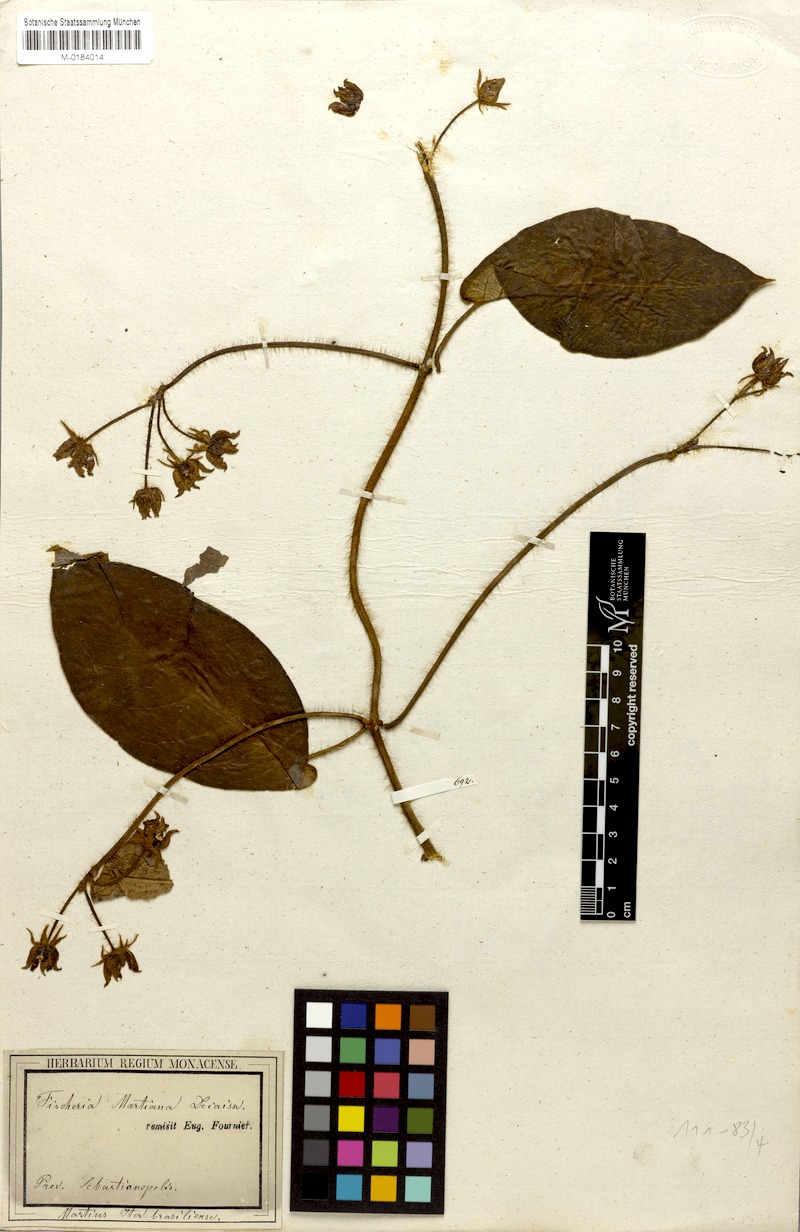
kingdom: Plantae
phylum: Tracheophyta
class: Magnoliopsida
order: Gentianales
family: Apocynaceae
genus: Fischeria
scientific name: Fischeria stellata
